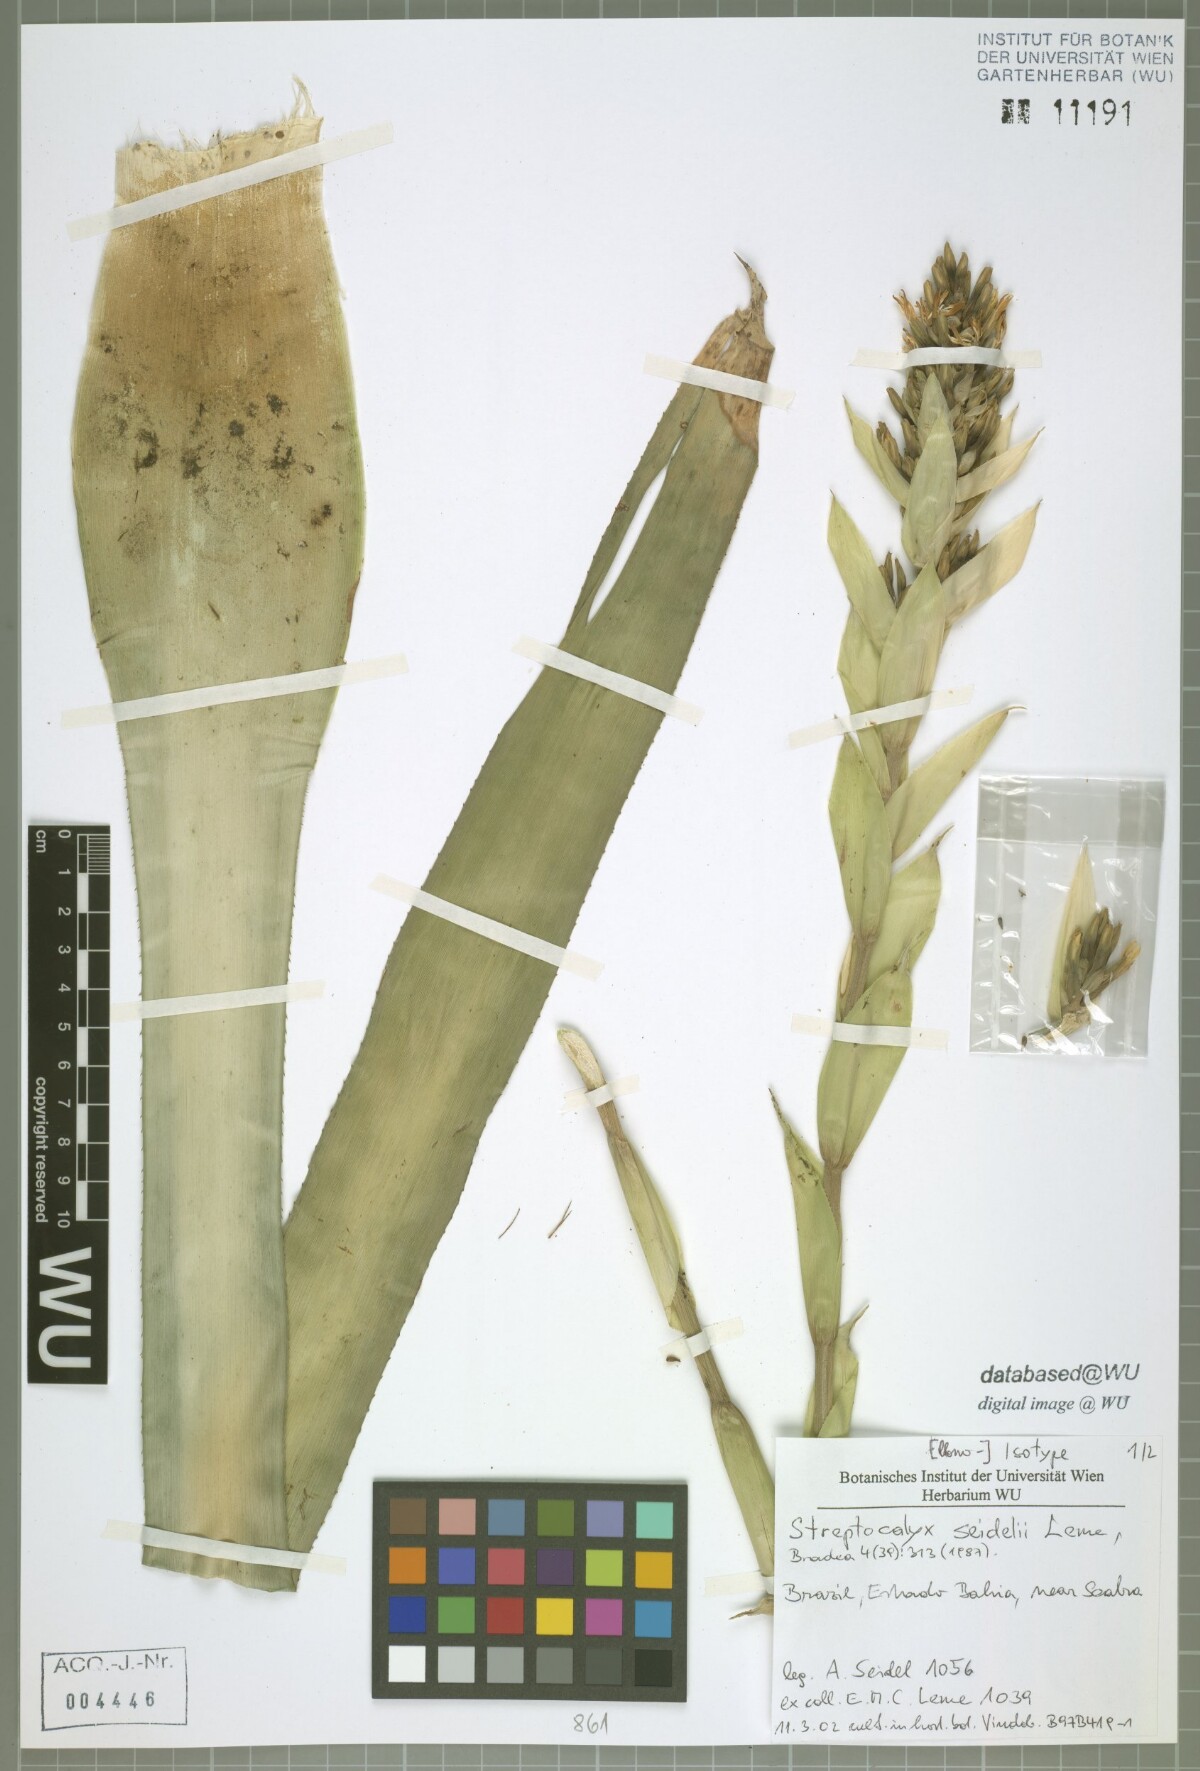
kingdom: Plantae
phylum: Tracheophyta
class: Liliopsida
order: Poales
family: Bromeliaceae
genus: Aechmea
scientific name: Aechmea seidelii
